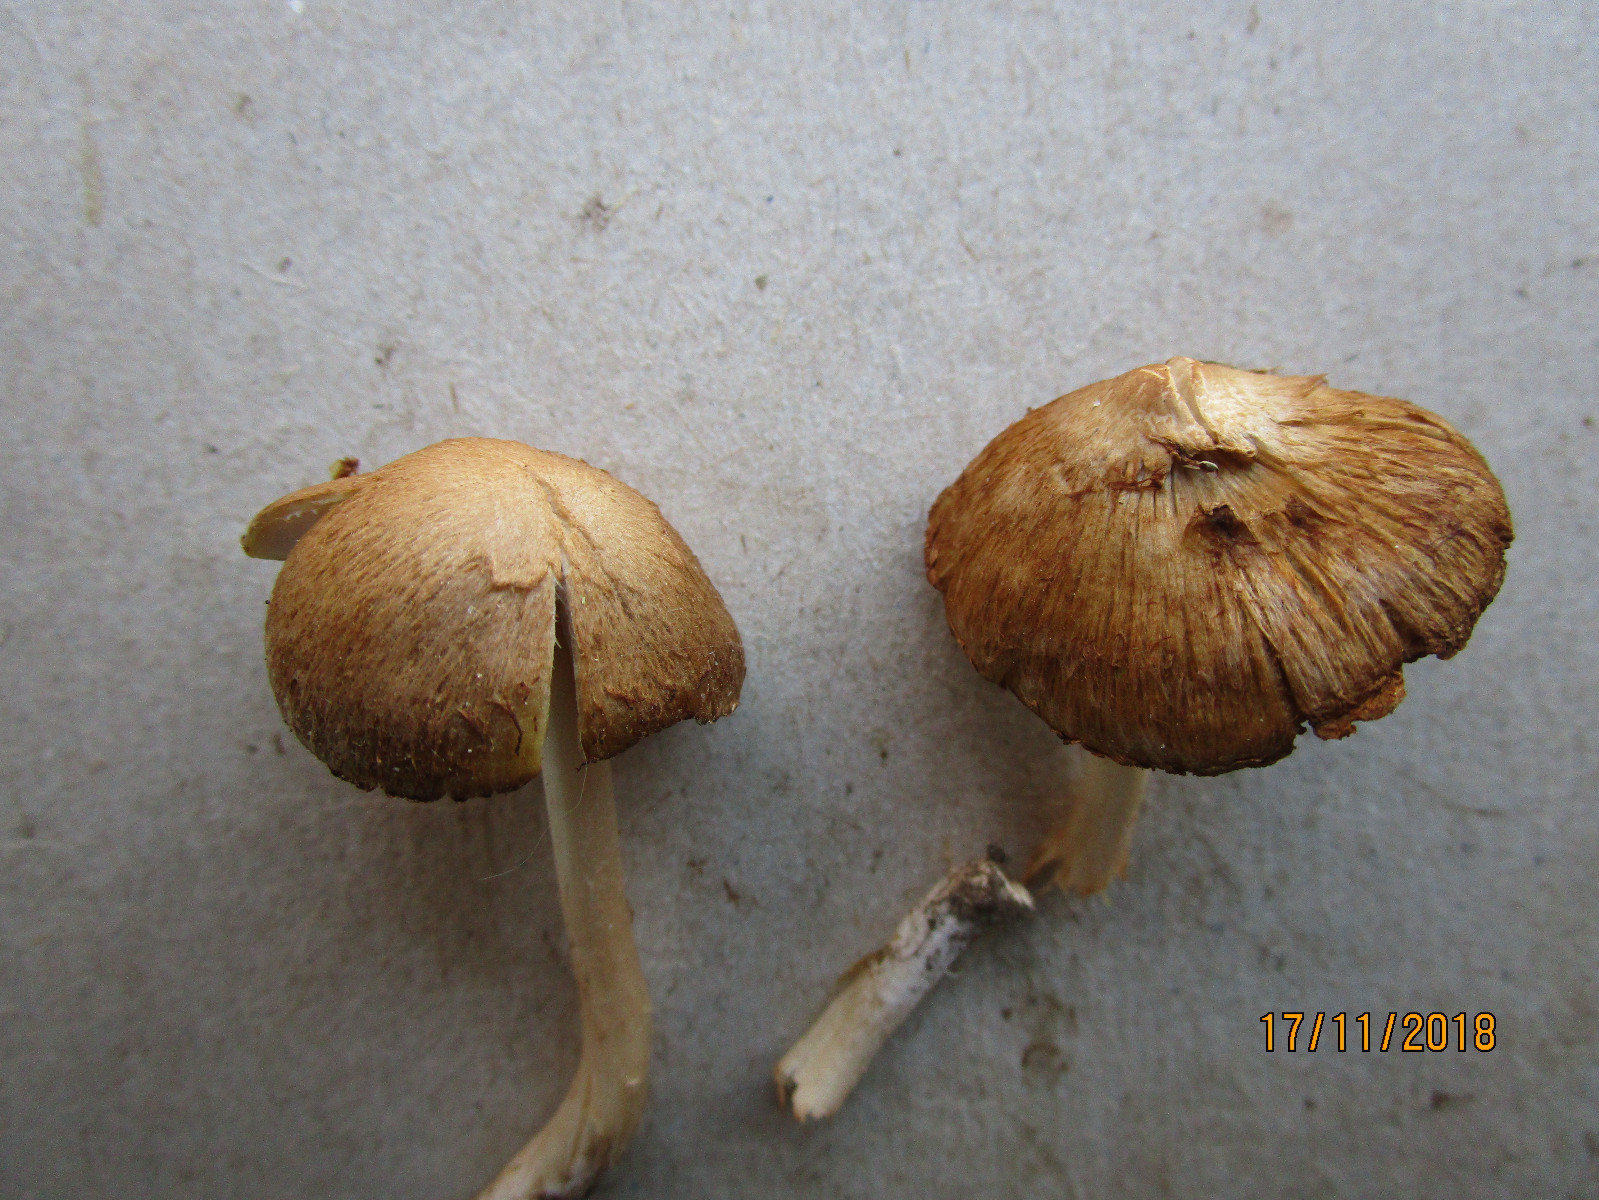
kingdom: Fungi
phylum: Basidiomycota
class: Agaricomycetes
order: Agaricales
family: Inocybaceae
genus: Inocybe
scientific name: Inocybe
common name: trævlhat
